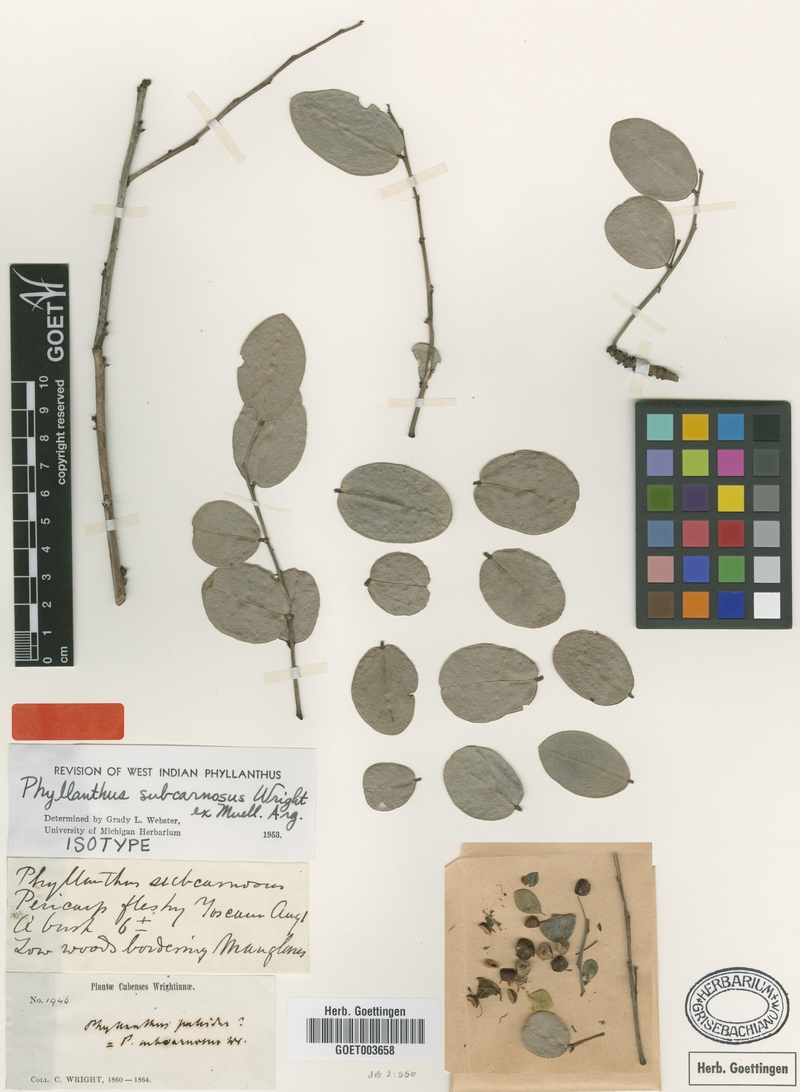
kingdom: Plantae
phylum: Tracheophyta
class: Magnoliopsida
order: Malpighiales
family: Phyllanthaceae
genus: Phyllanthus
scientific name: Phyllanthus subcarnosus
